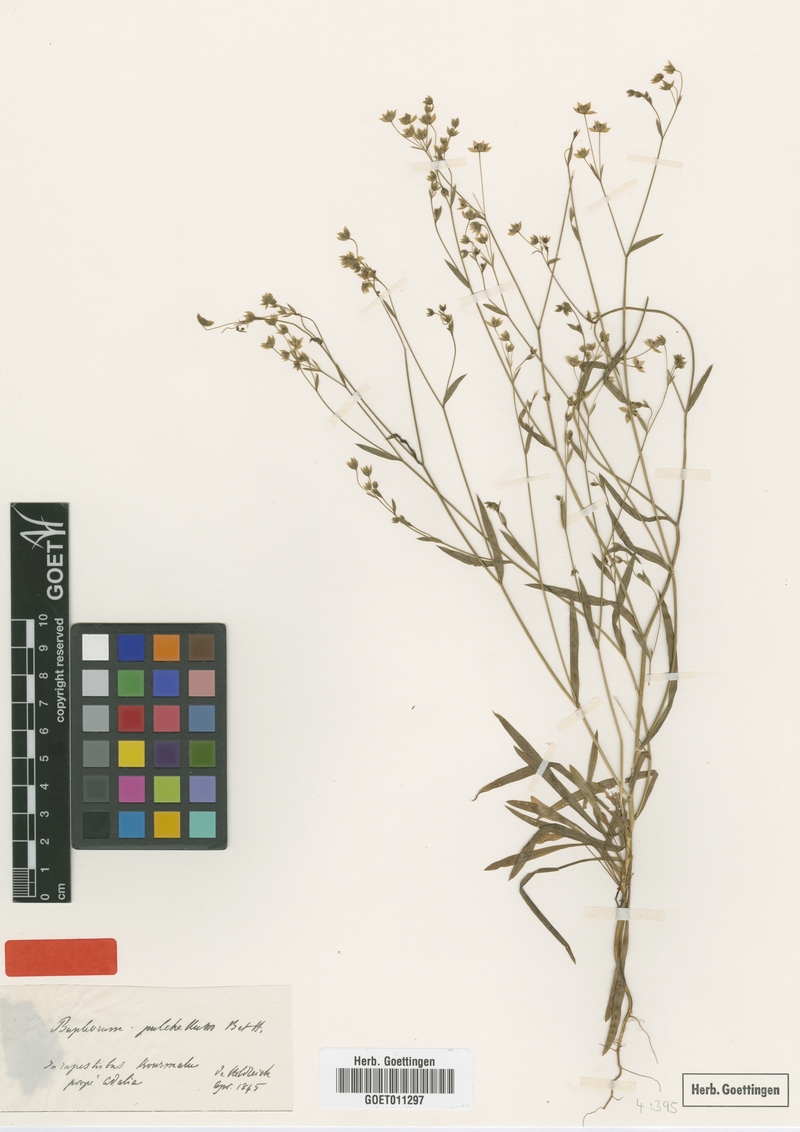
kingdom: Plantae
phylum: Tracheophyta
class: Magnoliopsida
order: Apiales
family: Apiaceae
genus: Bupleurum
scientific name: Bupleurum pulchellum
